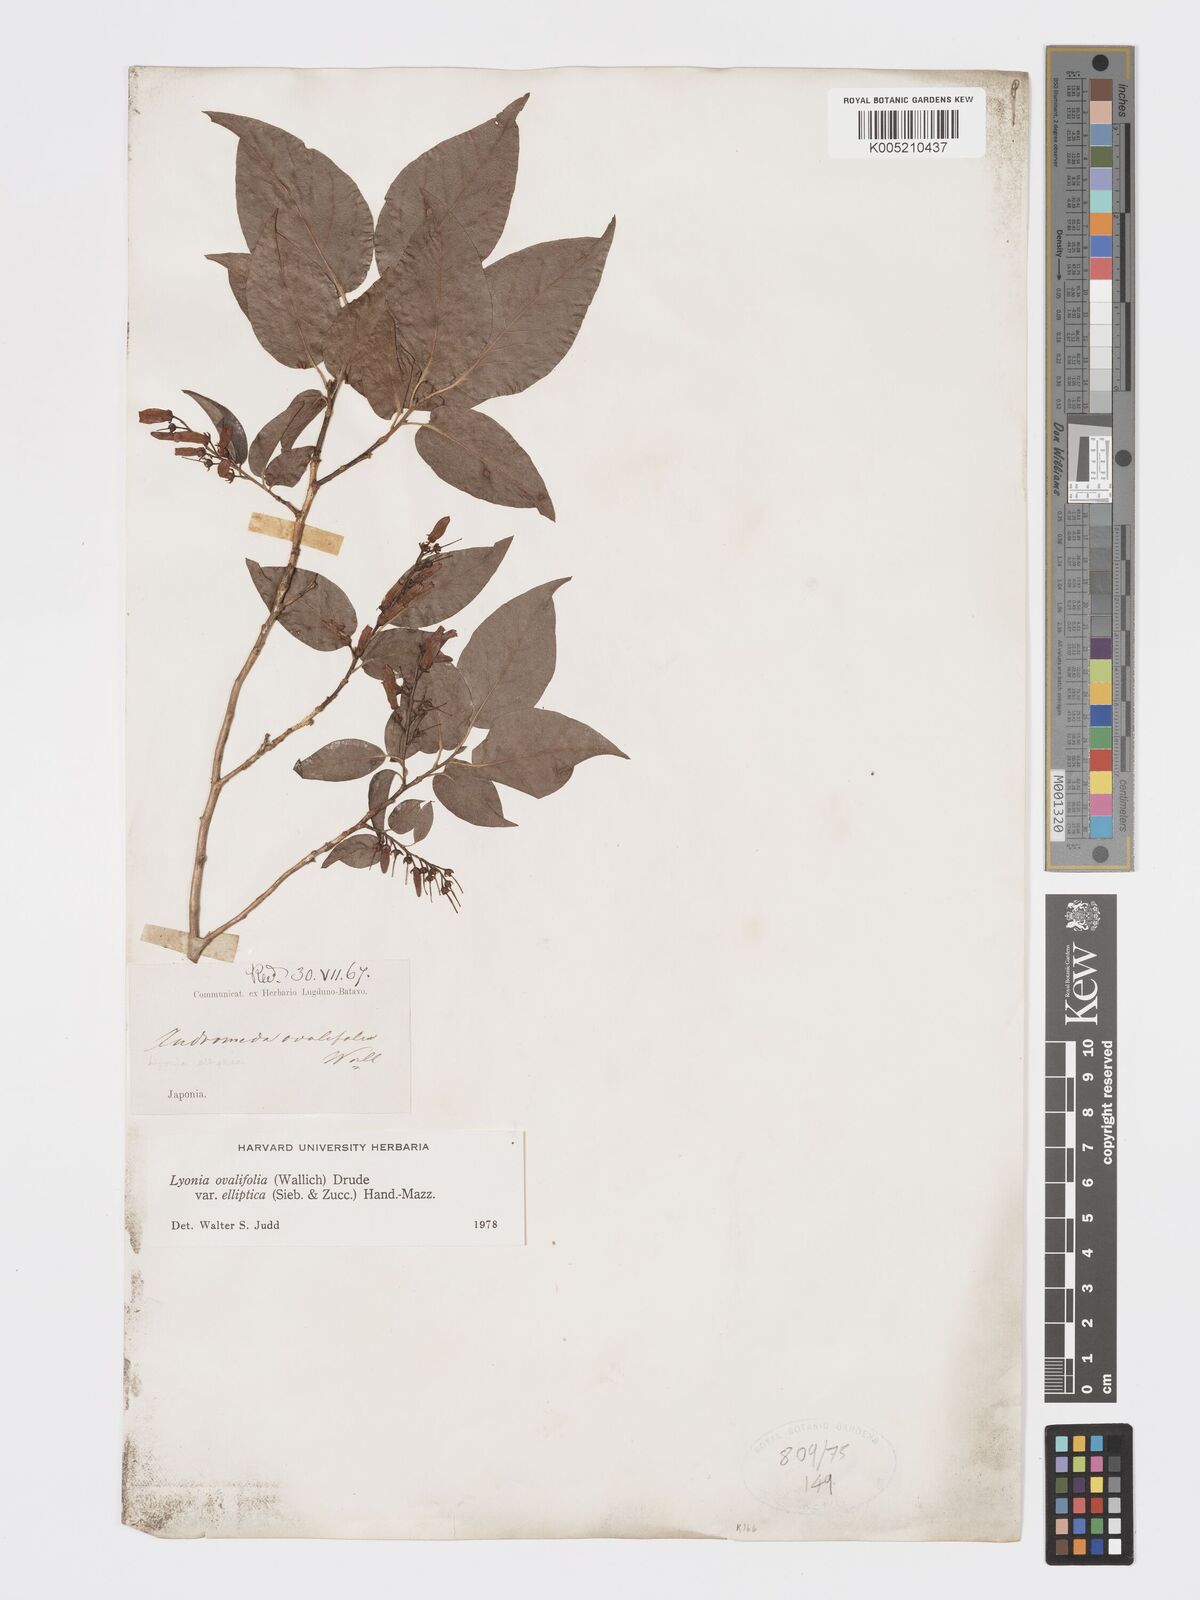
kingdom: Plantae
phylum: Tracheophyta
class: Magnoliopsida
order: Ericales
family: Ericaceae
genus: Lyonia
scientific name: Lyonia elliptica
